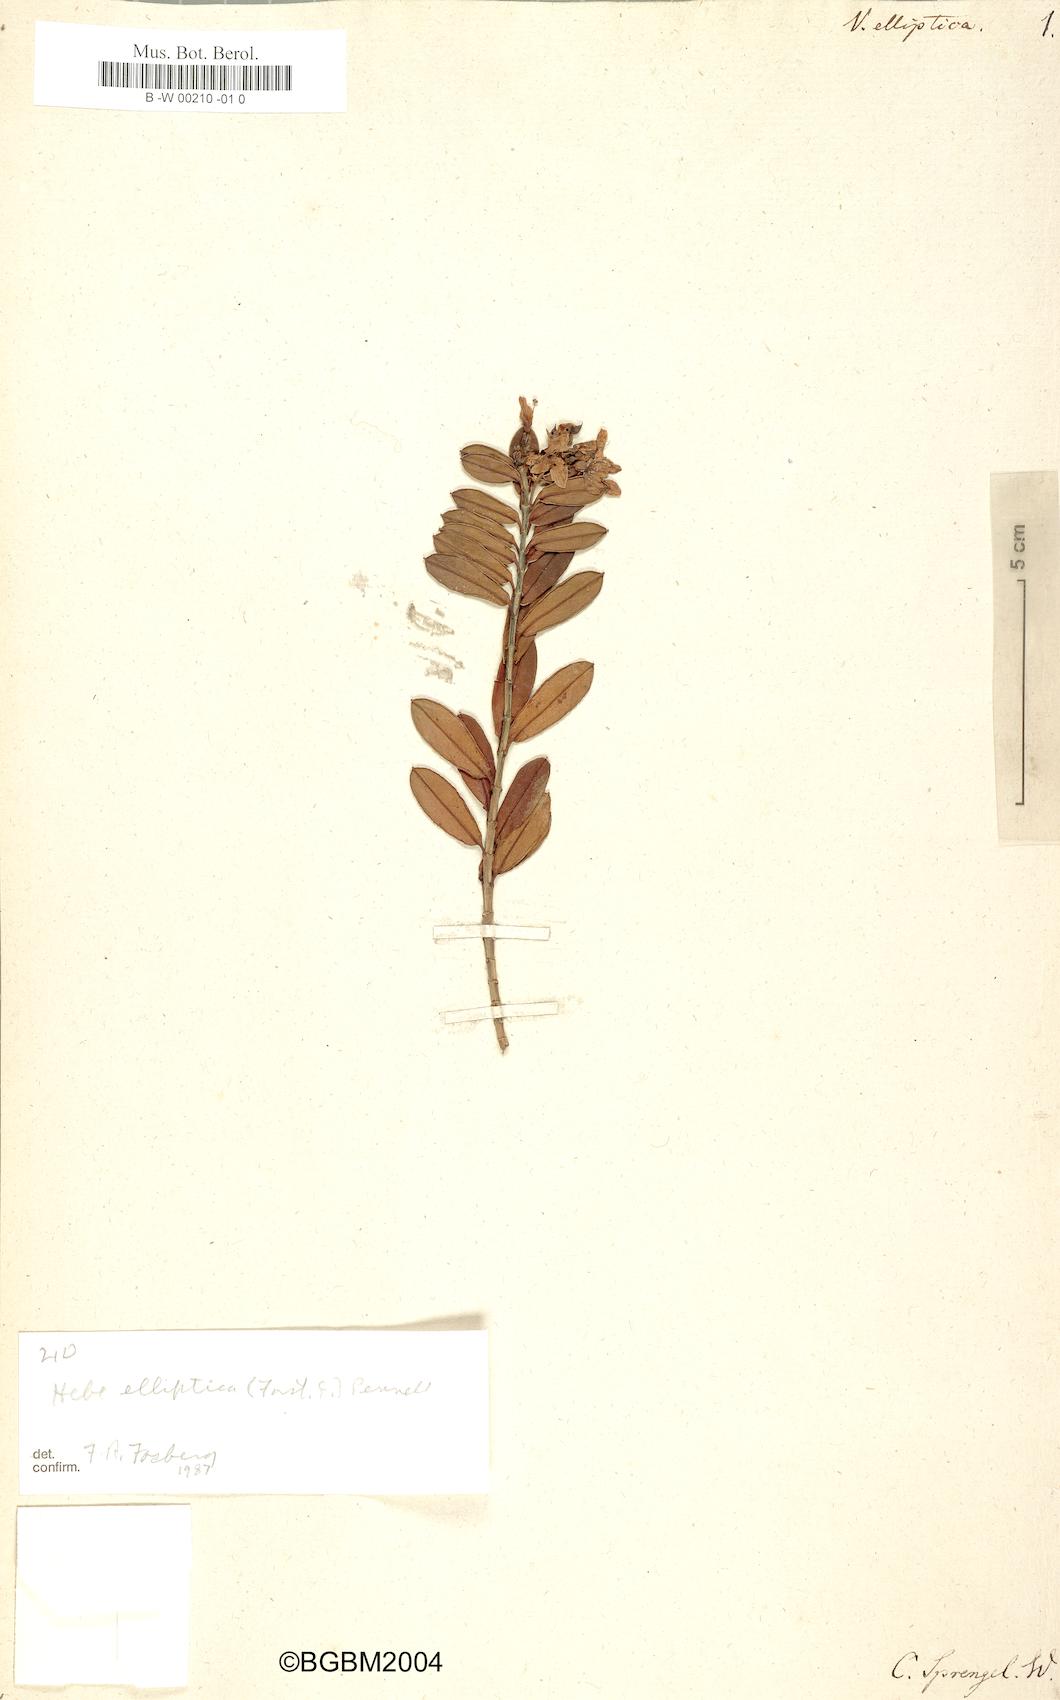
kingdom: Plantae
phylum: Tracheophyta
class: Magnoliopsida
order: Lamiales
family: Plantaginaceae
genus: Veronica
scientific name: Veronica elliptica
